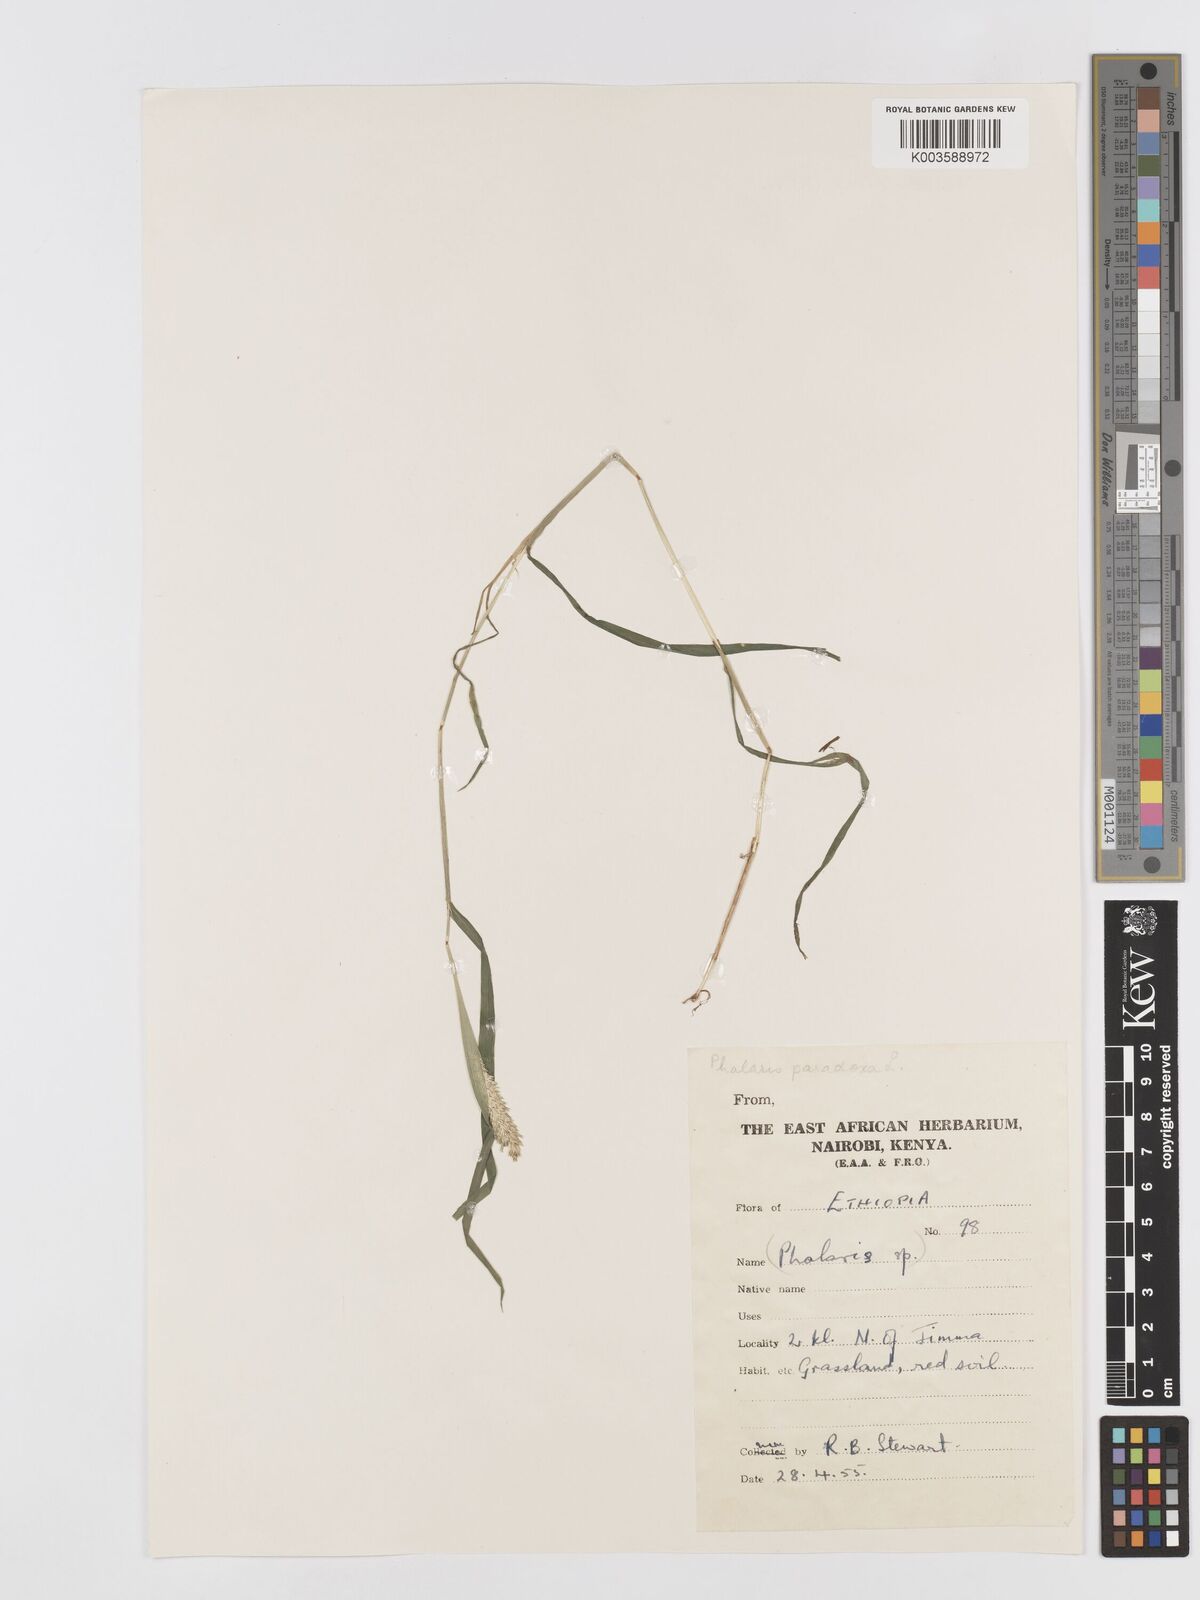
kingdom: Plantae
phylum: Tracheophyta
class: Liliopsida
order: Poales
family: Poaceae
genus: Phalaris
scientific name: Phalaris paradoxa
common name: Awned canary-grass
